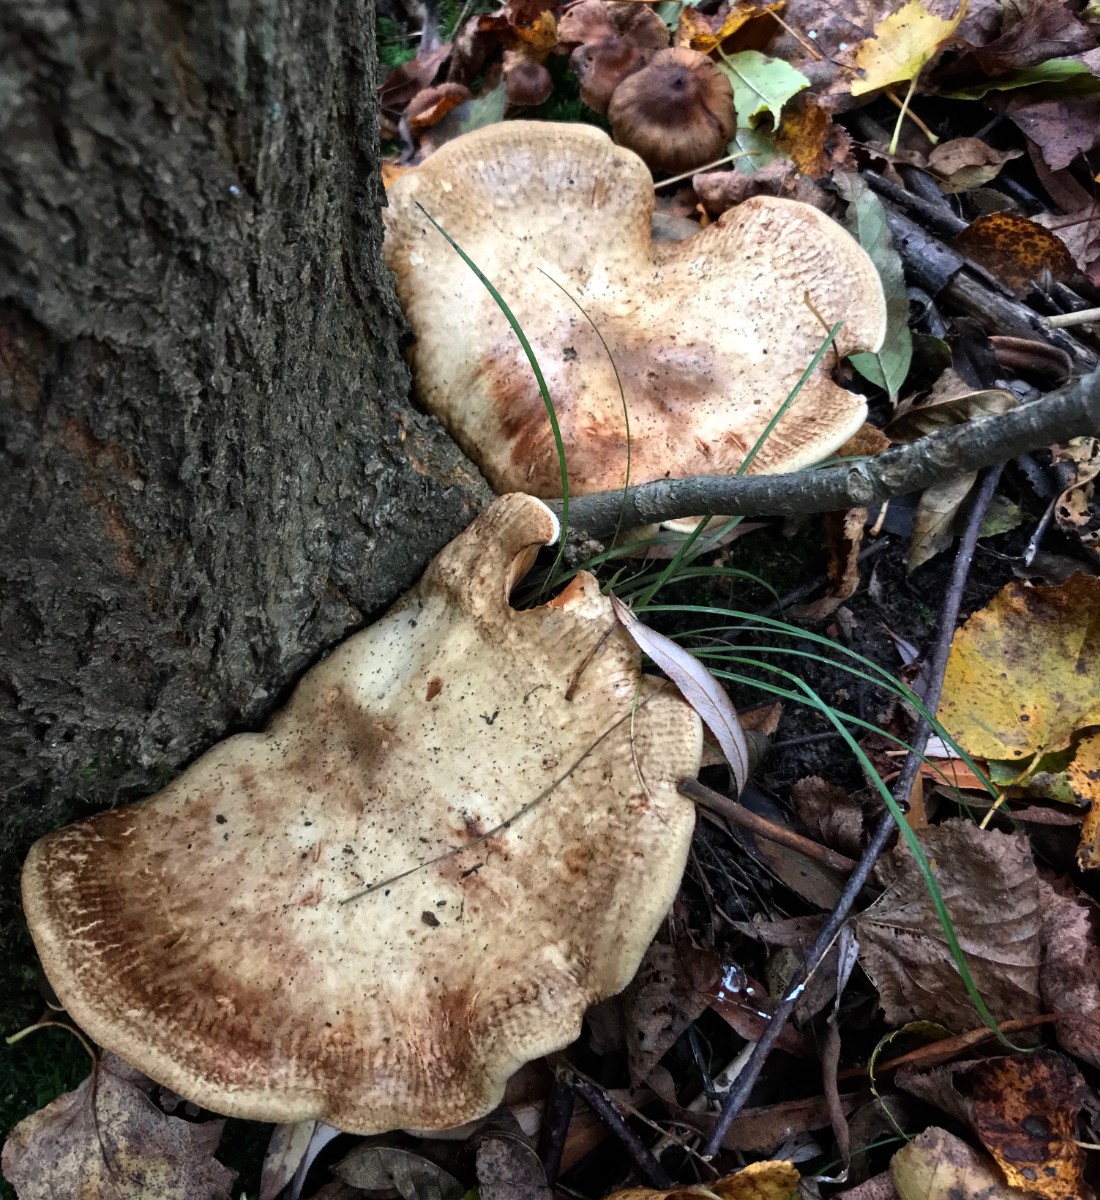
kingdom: Fungi
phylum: Basidiomycota
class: Agaricomycetes
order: Boletales
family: Paxillaceae
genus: Paxillus
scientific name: Paxillus rubicundulus
